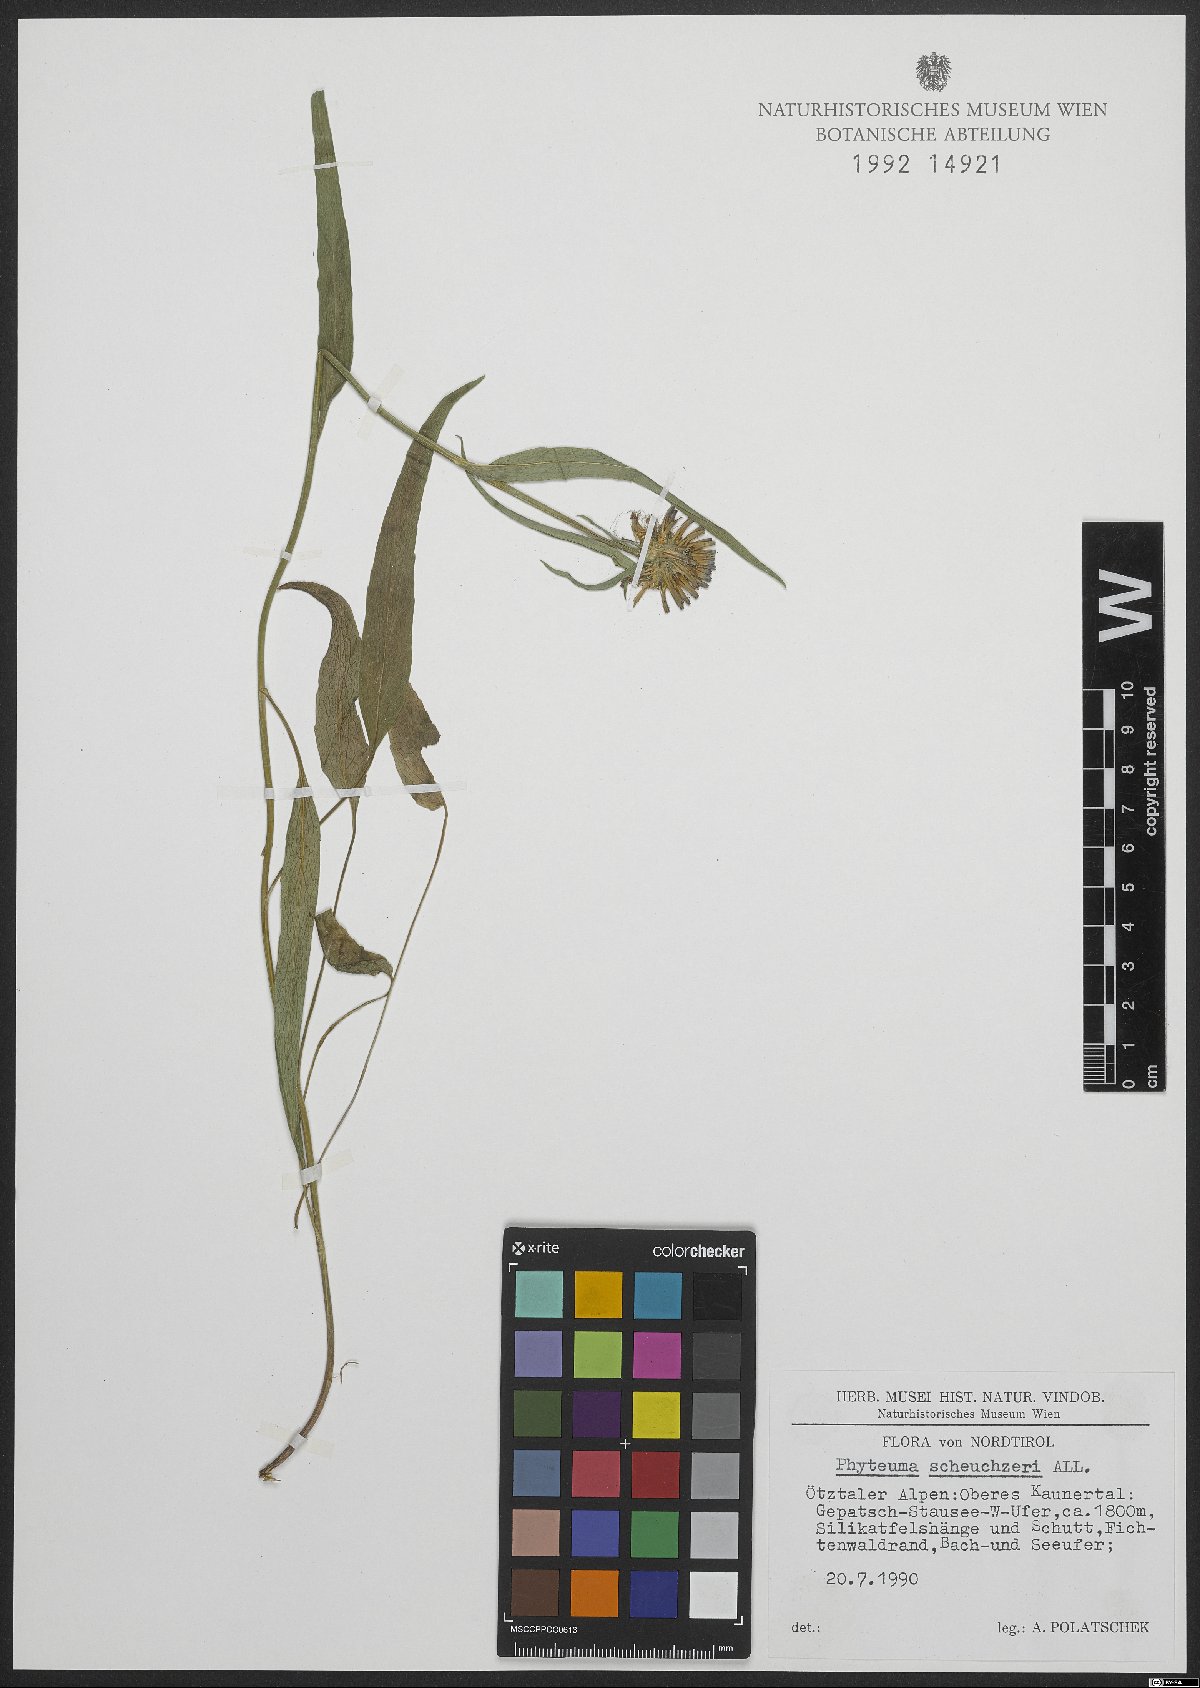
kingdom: Plantae
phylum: Tracheophyta
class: Magnoliopsida
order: Asterales
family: Campanulaceae
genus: Phyteuma
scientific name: Phyteuma scheuchzeri
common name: Oxford rampion
